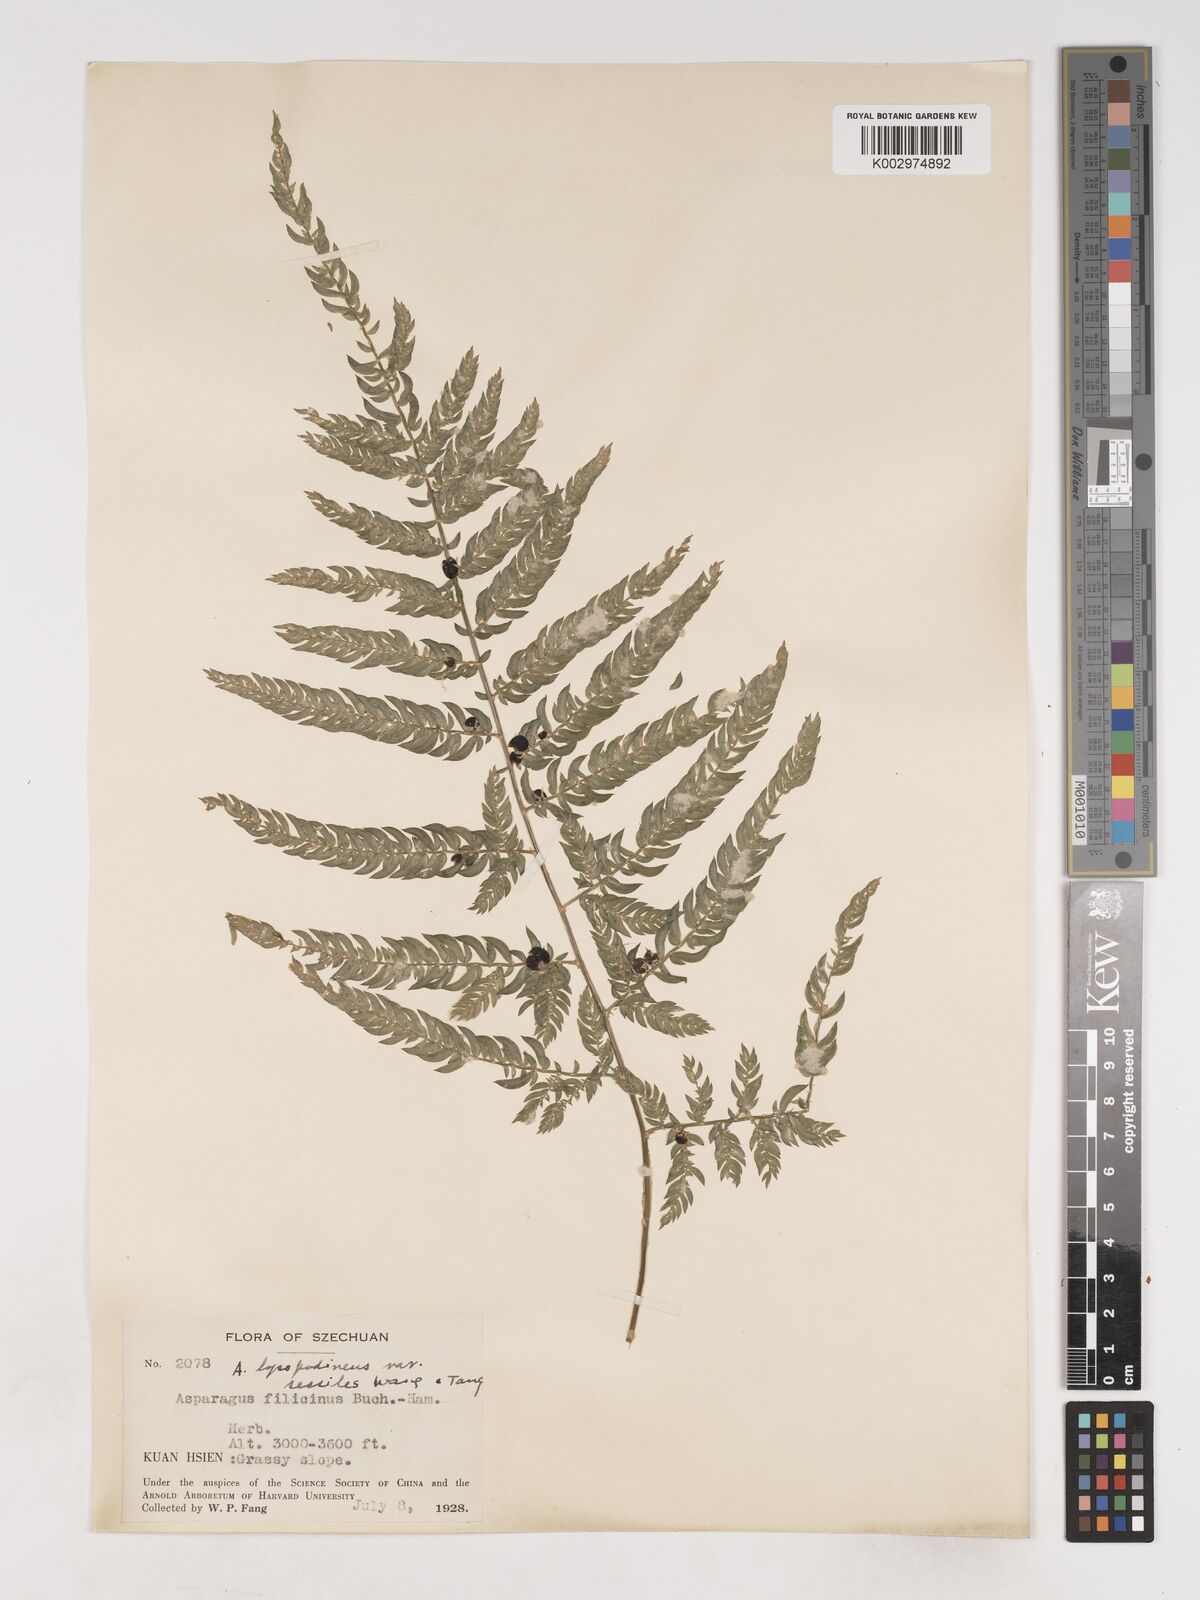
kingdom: Plantae
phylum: Tracheophyta
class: Liliopsida
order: Asparagales
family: Asparagaceae
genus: Asparagus
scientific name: Asparagus lycopodineus
